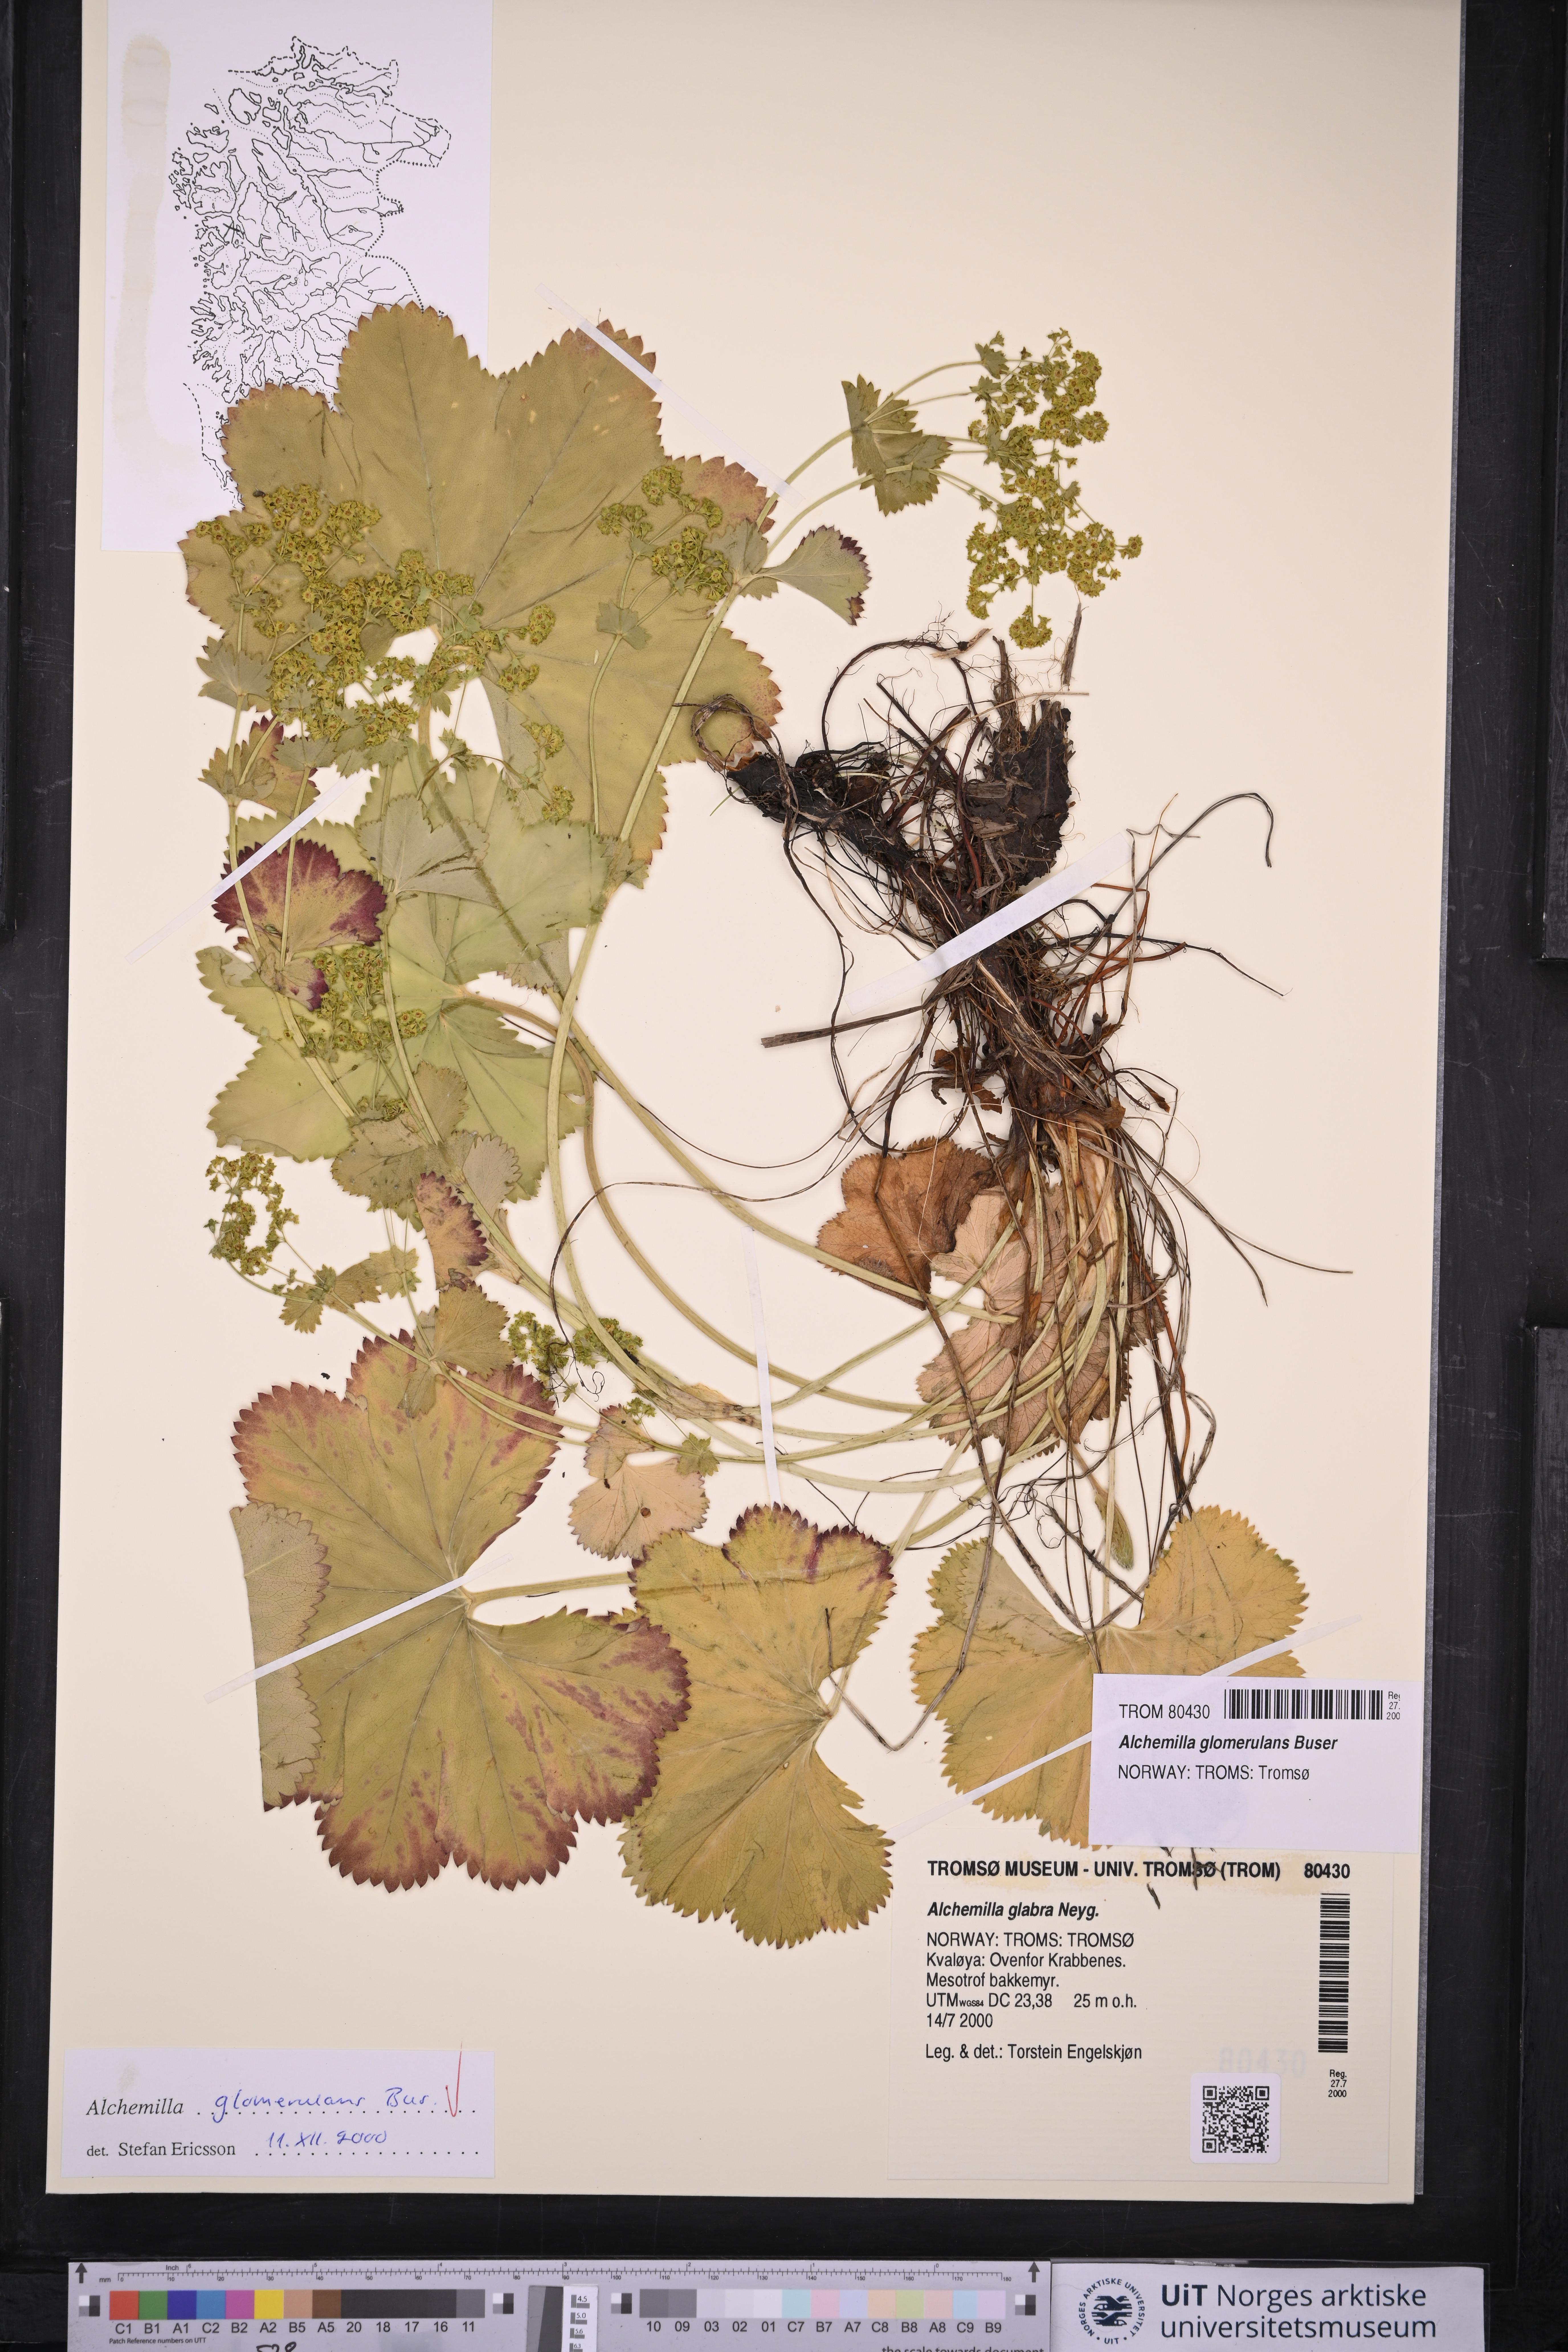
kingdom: Plantae
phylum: Tracheophyta
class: Magnoliopsida
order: Rosales
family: Rosaceae
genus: Alchemilla
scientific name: Alchemilla glomerulans
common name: Clustered lady's mantle
